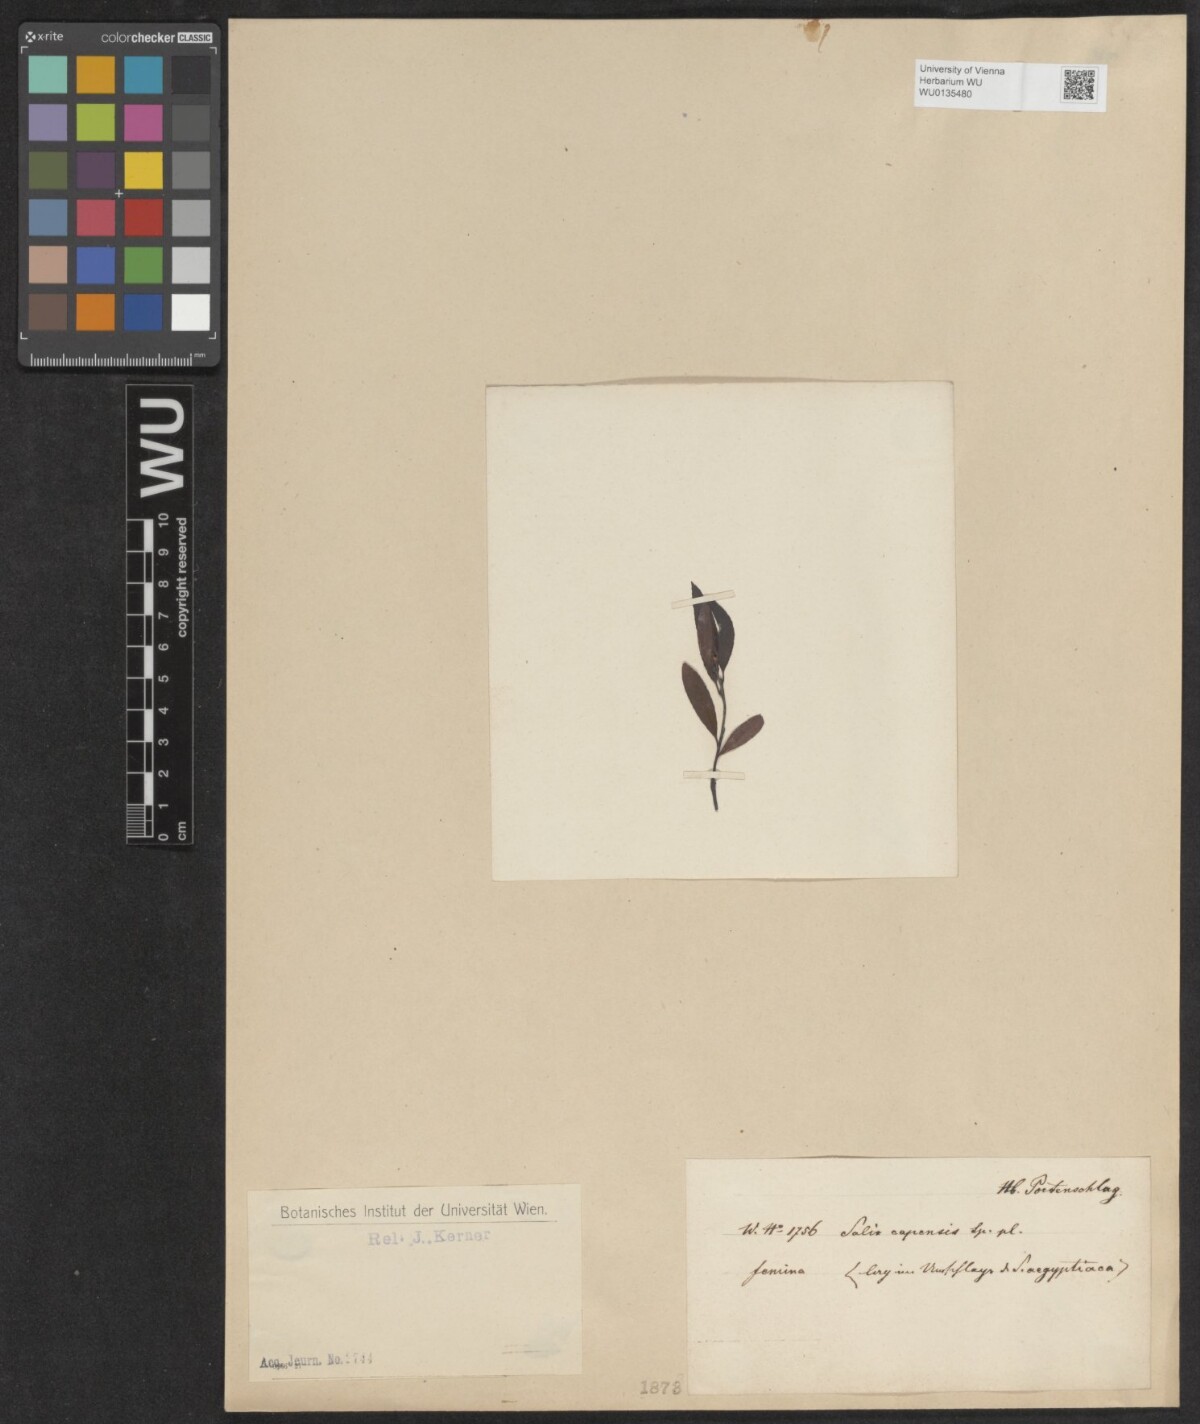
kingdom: Plantae
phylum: Tracheophyta
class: Magnoliopsida
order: Malpighiales
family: Salicaceae
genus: Salix
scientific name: Salix mucronata
